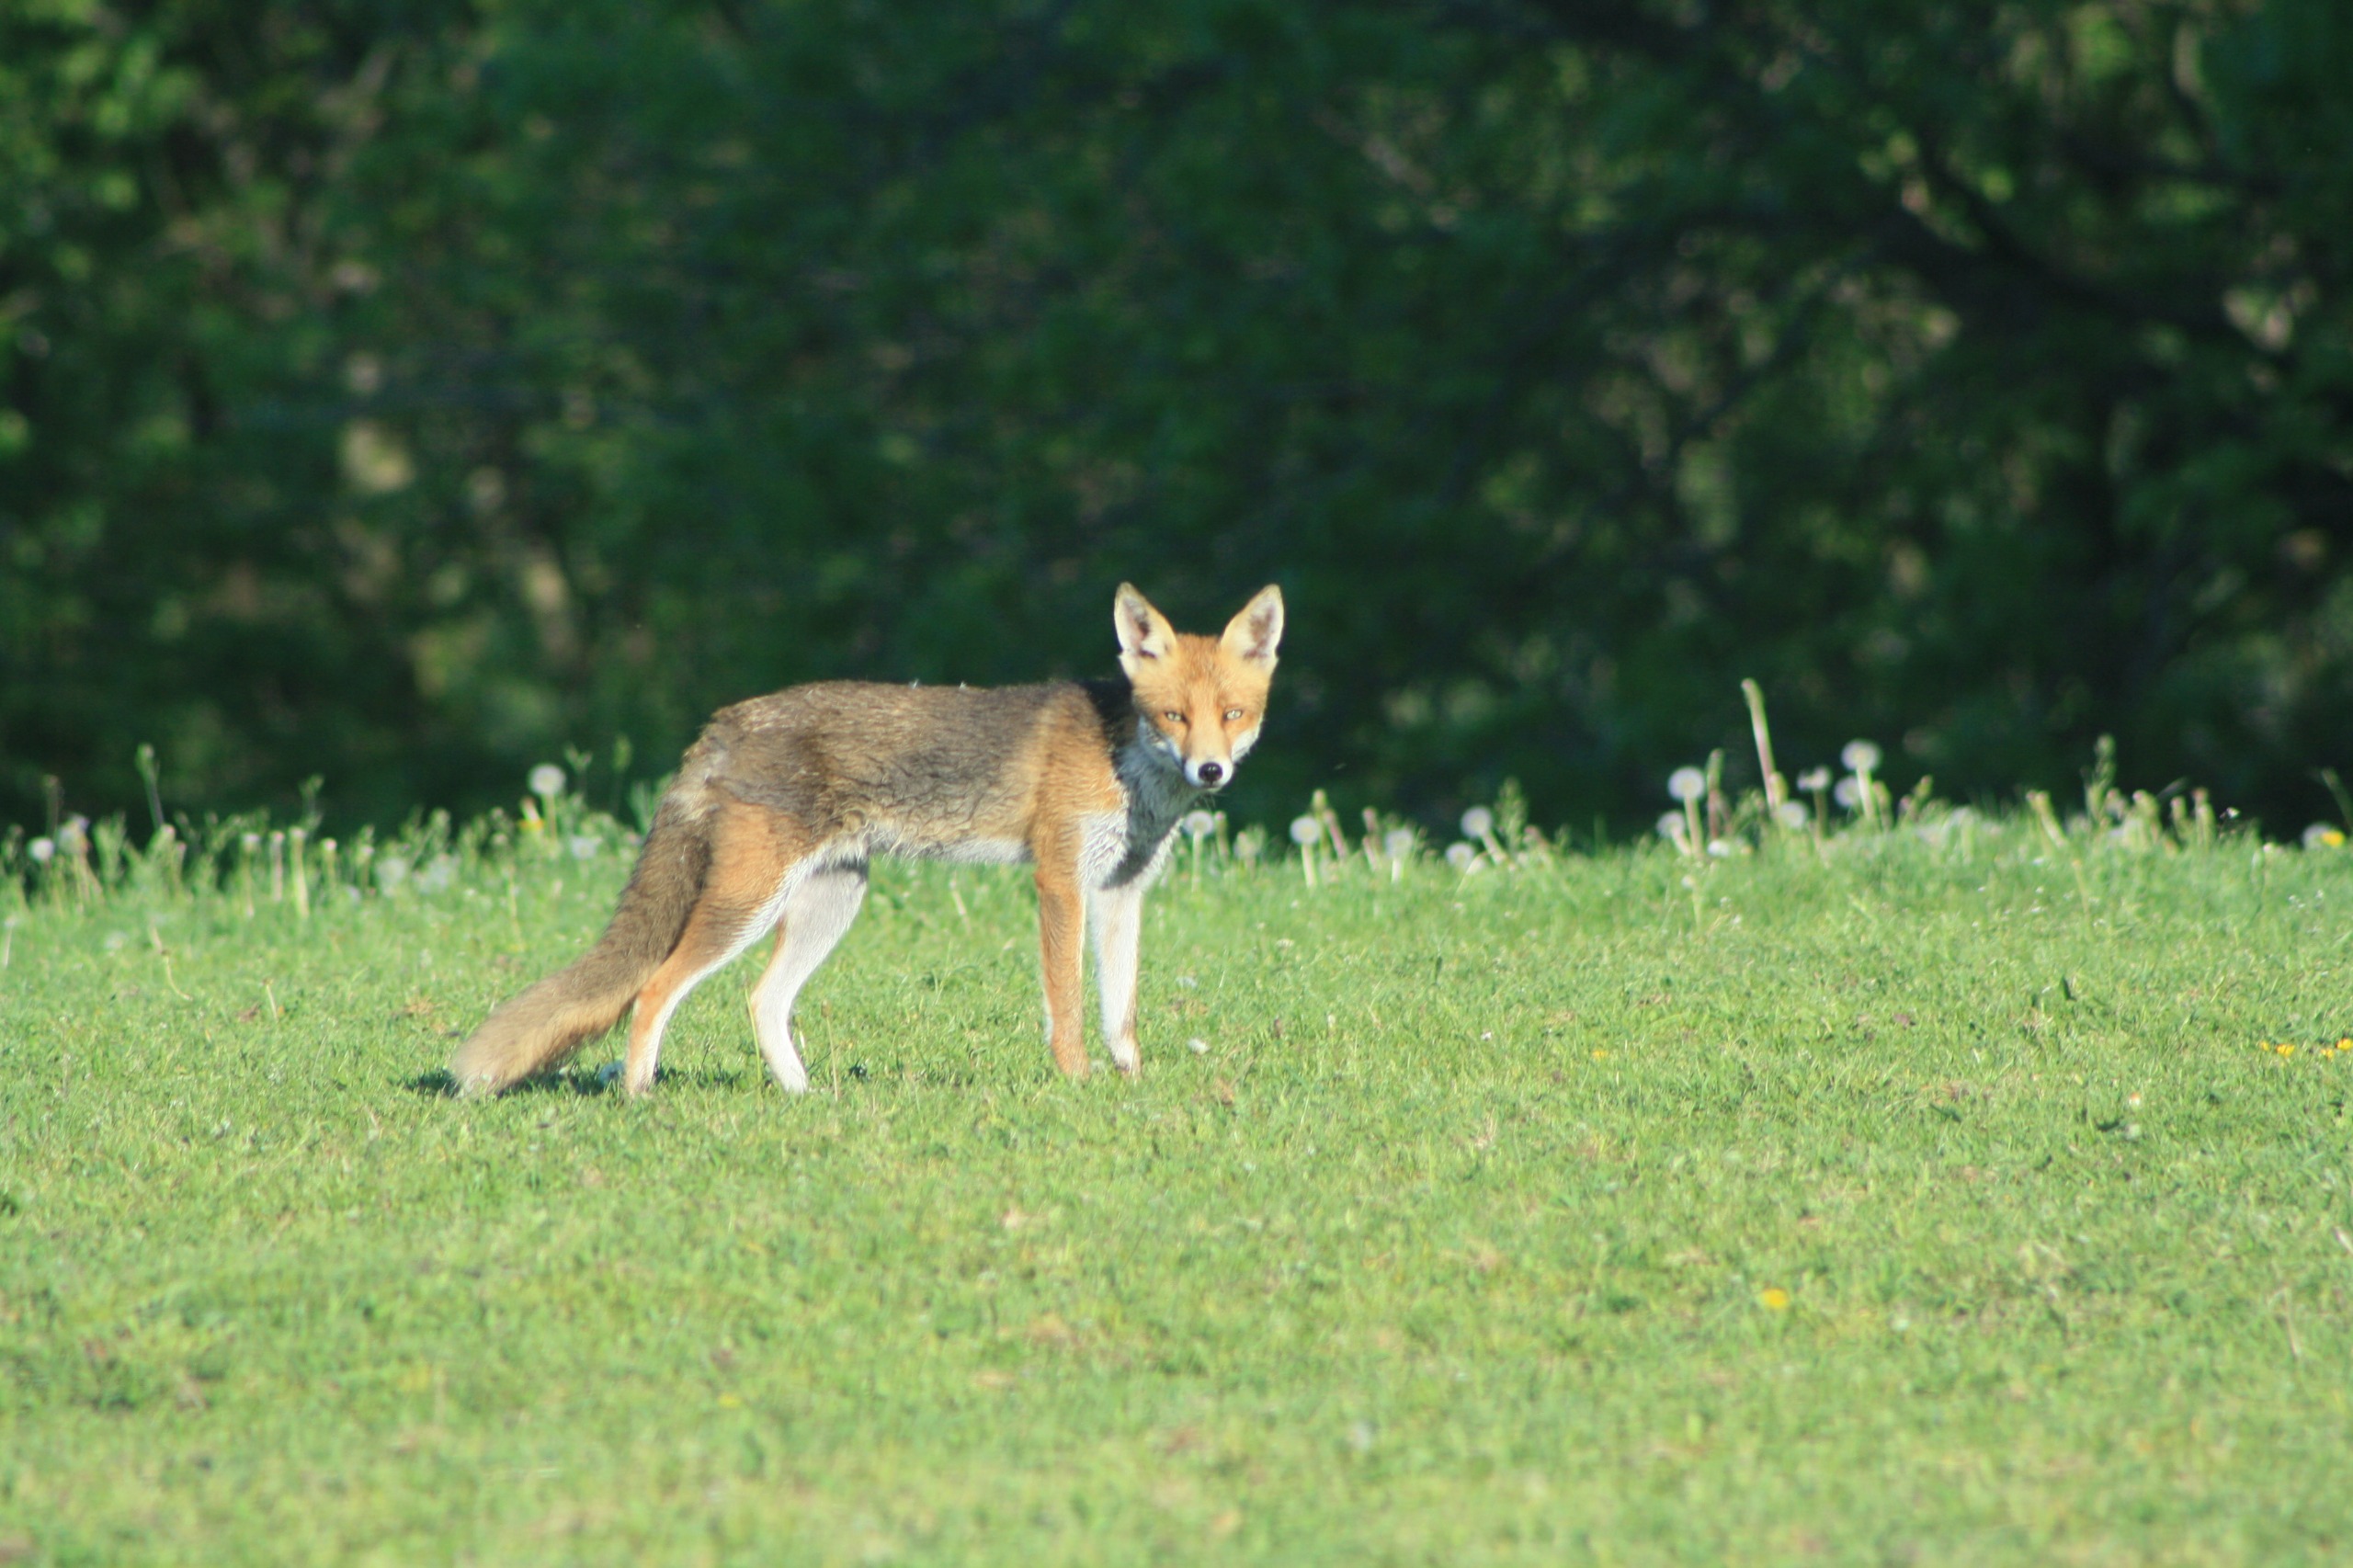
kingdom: Animalia
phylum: Chordata
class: Mammalia
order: Carnivora
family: Canidae
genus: Vulpes
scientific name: Vulpes vulpes
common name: Ræv
